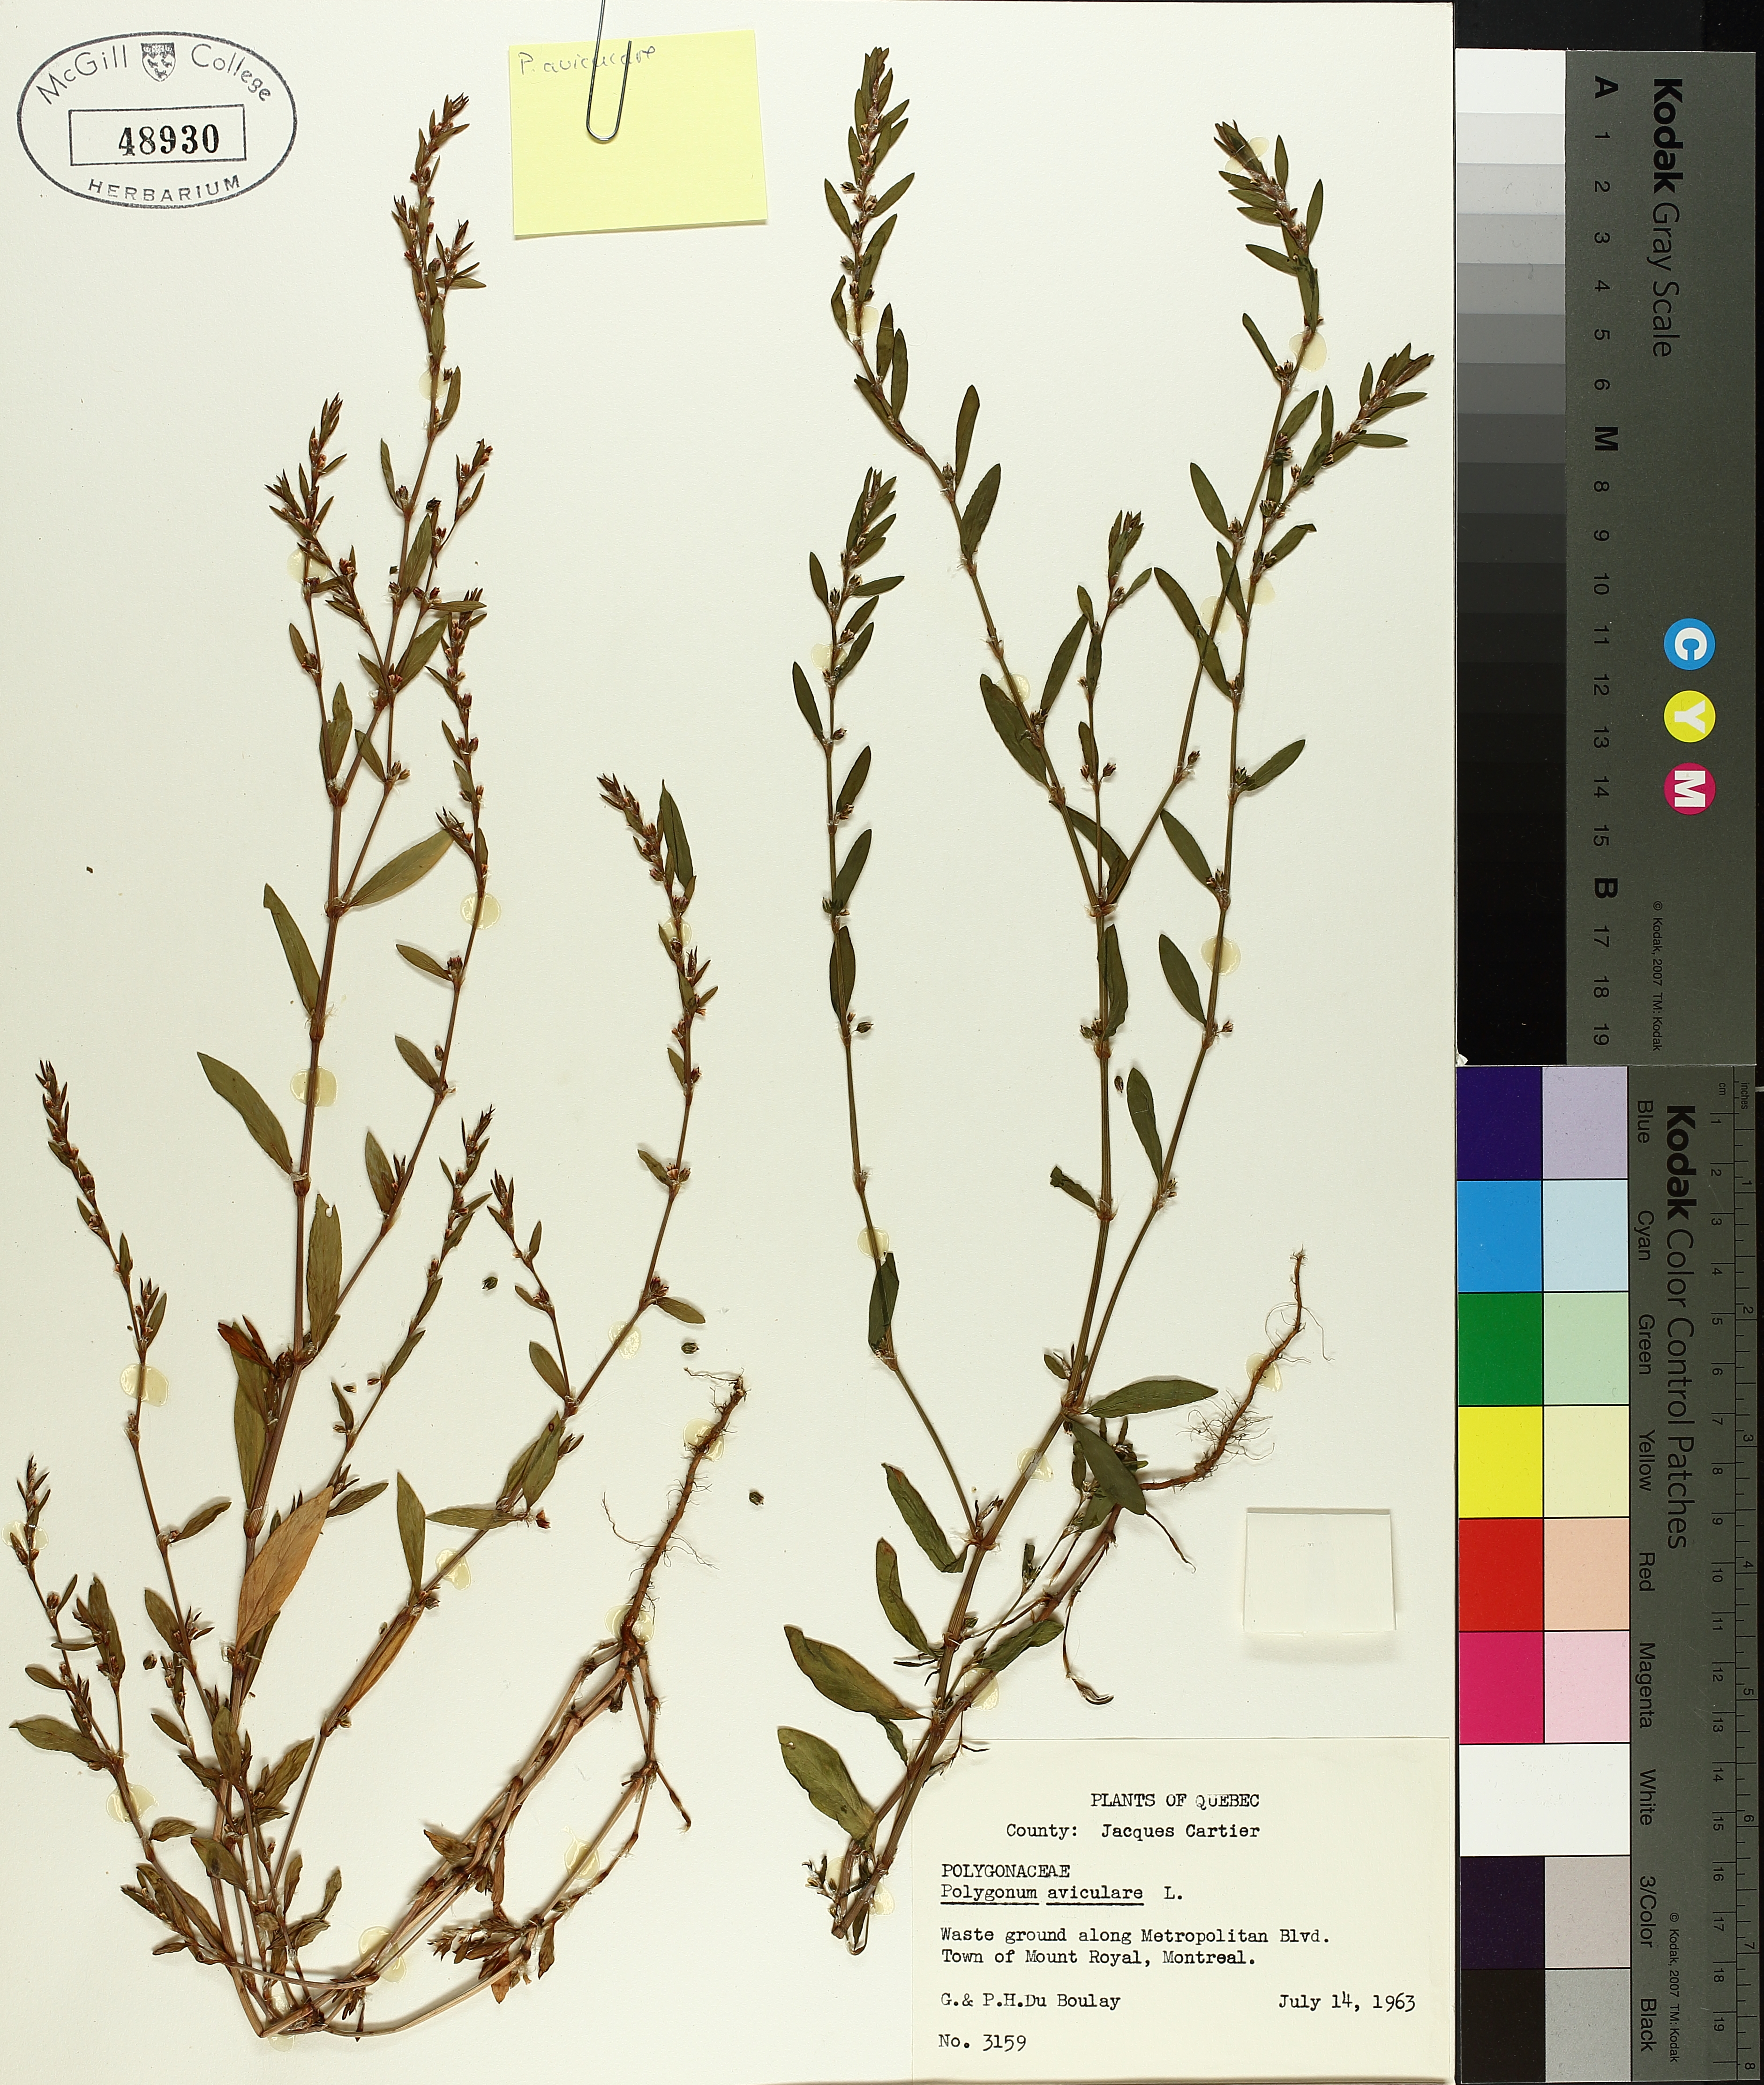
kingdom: Plantae
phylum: Tracheophyta
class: Magnoliopsida
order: Caryophyllales
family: Polygonaceae
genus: Polygonum
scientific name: Polygonum aviculare
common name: Prostrate knotweed
